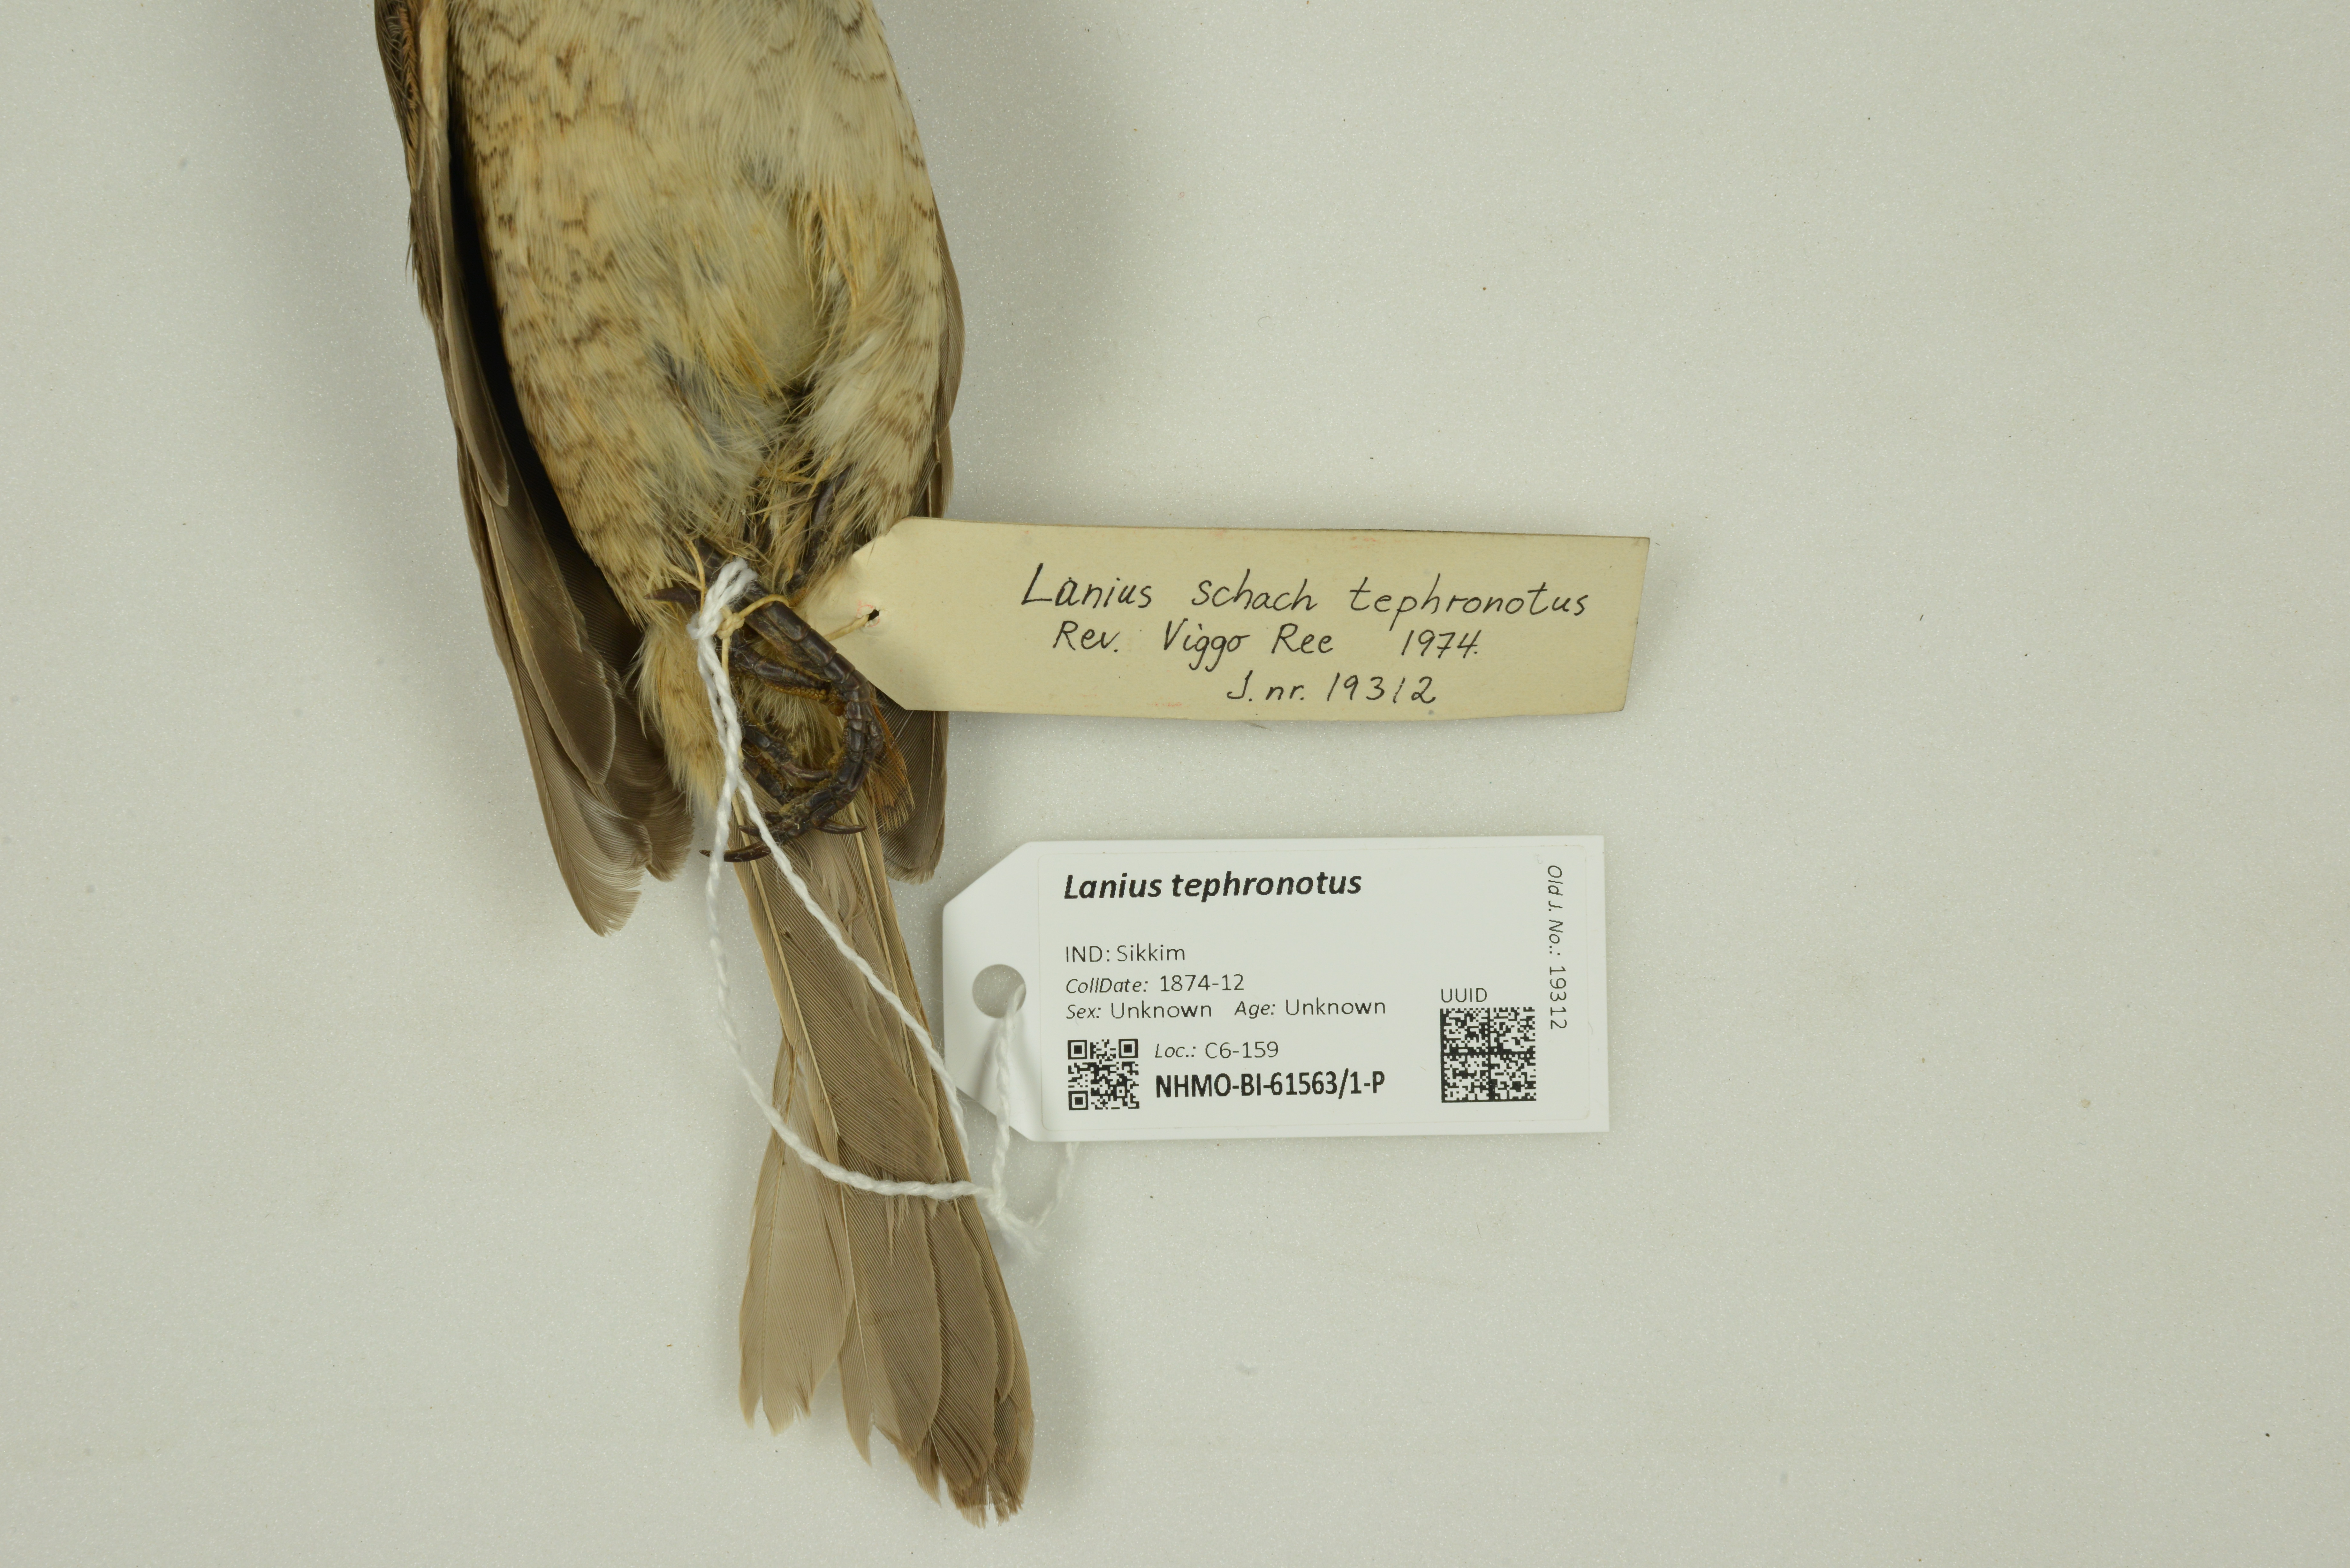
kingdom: Animalia
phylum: Chordata
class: Aves
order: Passeriformes
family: Laniidae
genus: Lanius
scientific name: Lanius tephronotus
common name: Grey-backed shrike
